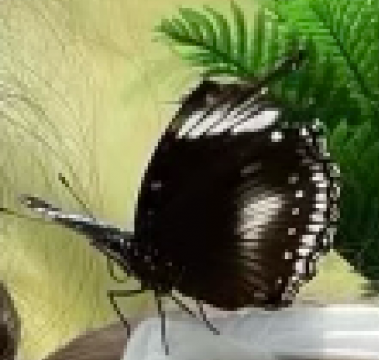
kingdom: Animalia
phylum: Arthropoda
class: Insecta
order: Lepidoptera
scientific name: Lepidoptera
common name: Butterflies
